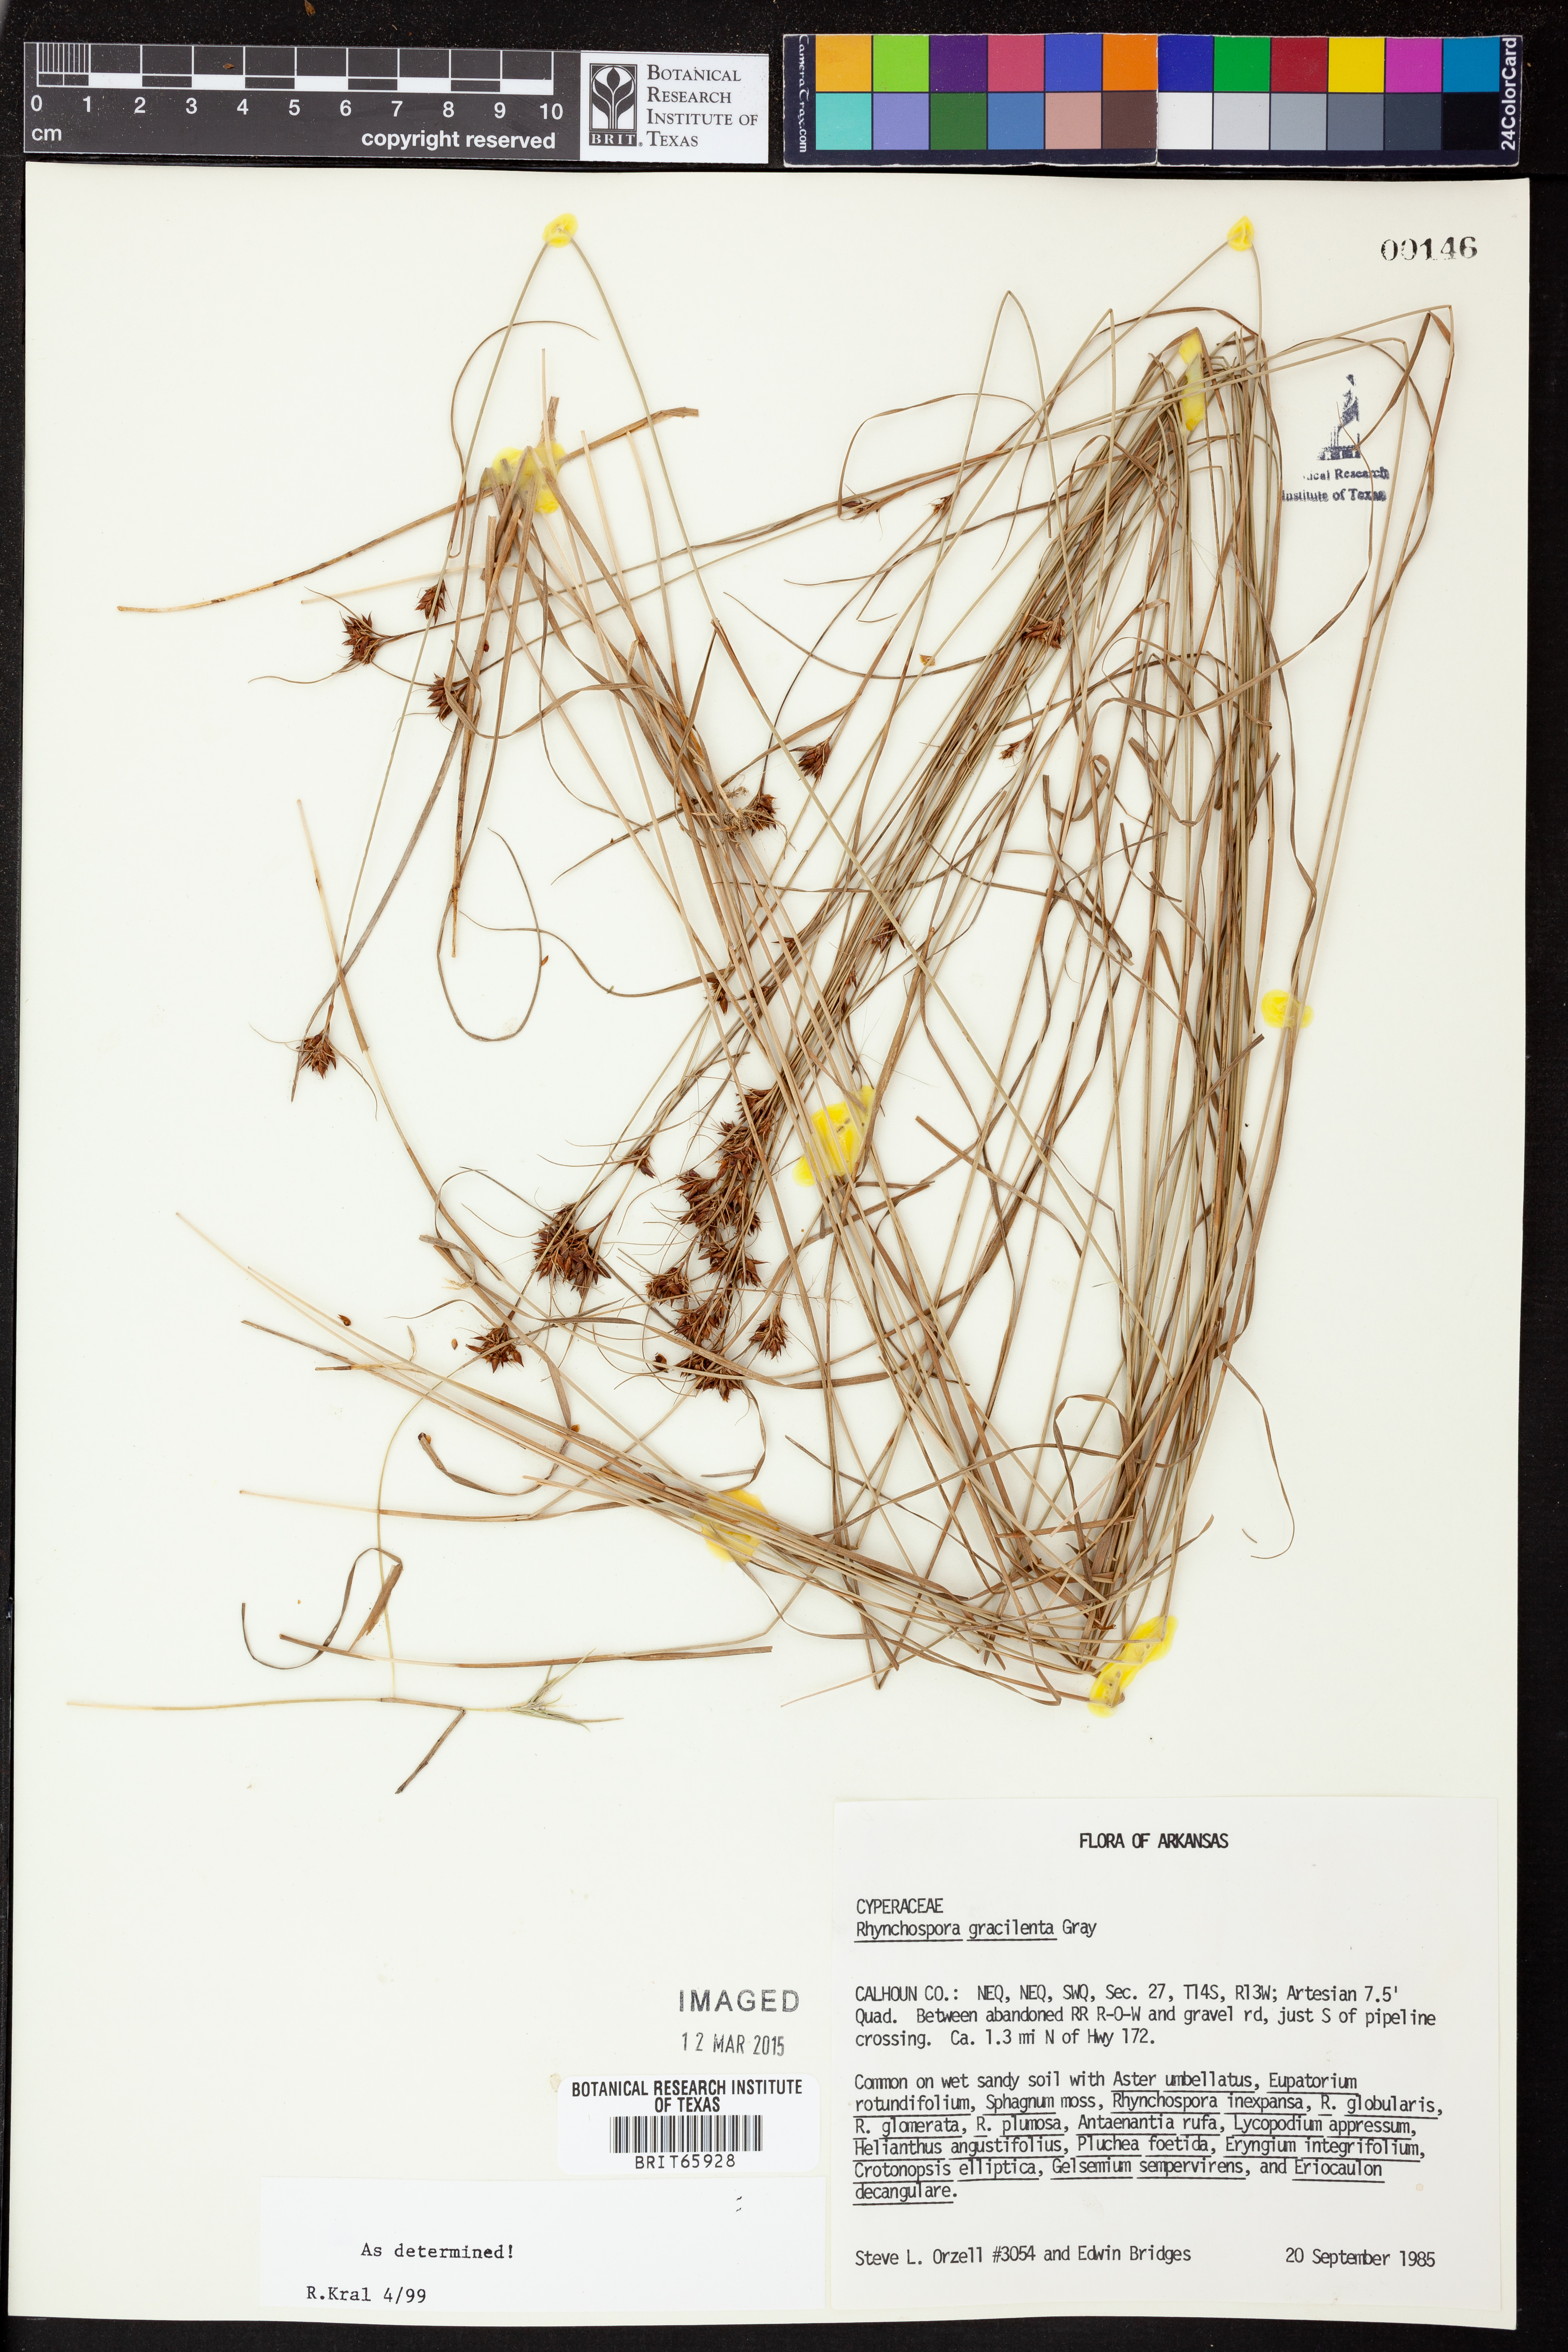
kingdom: Plantae
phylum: Tracheophyta
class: Liliopsida
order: Poales
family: Cyperaceae
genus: Rhynchospora
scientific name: Rhynchospora gracilenta
